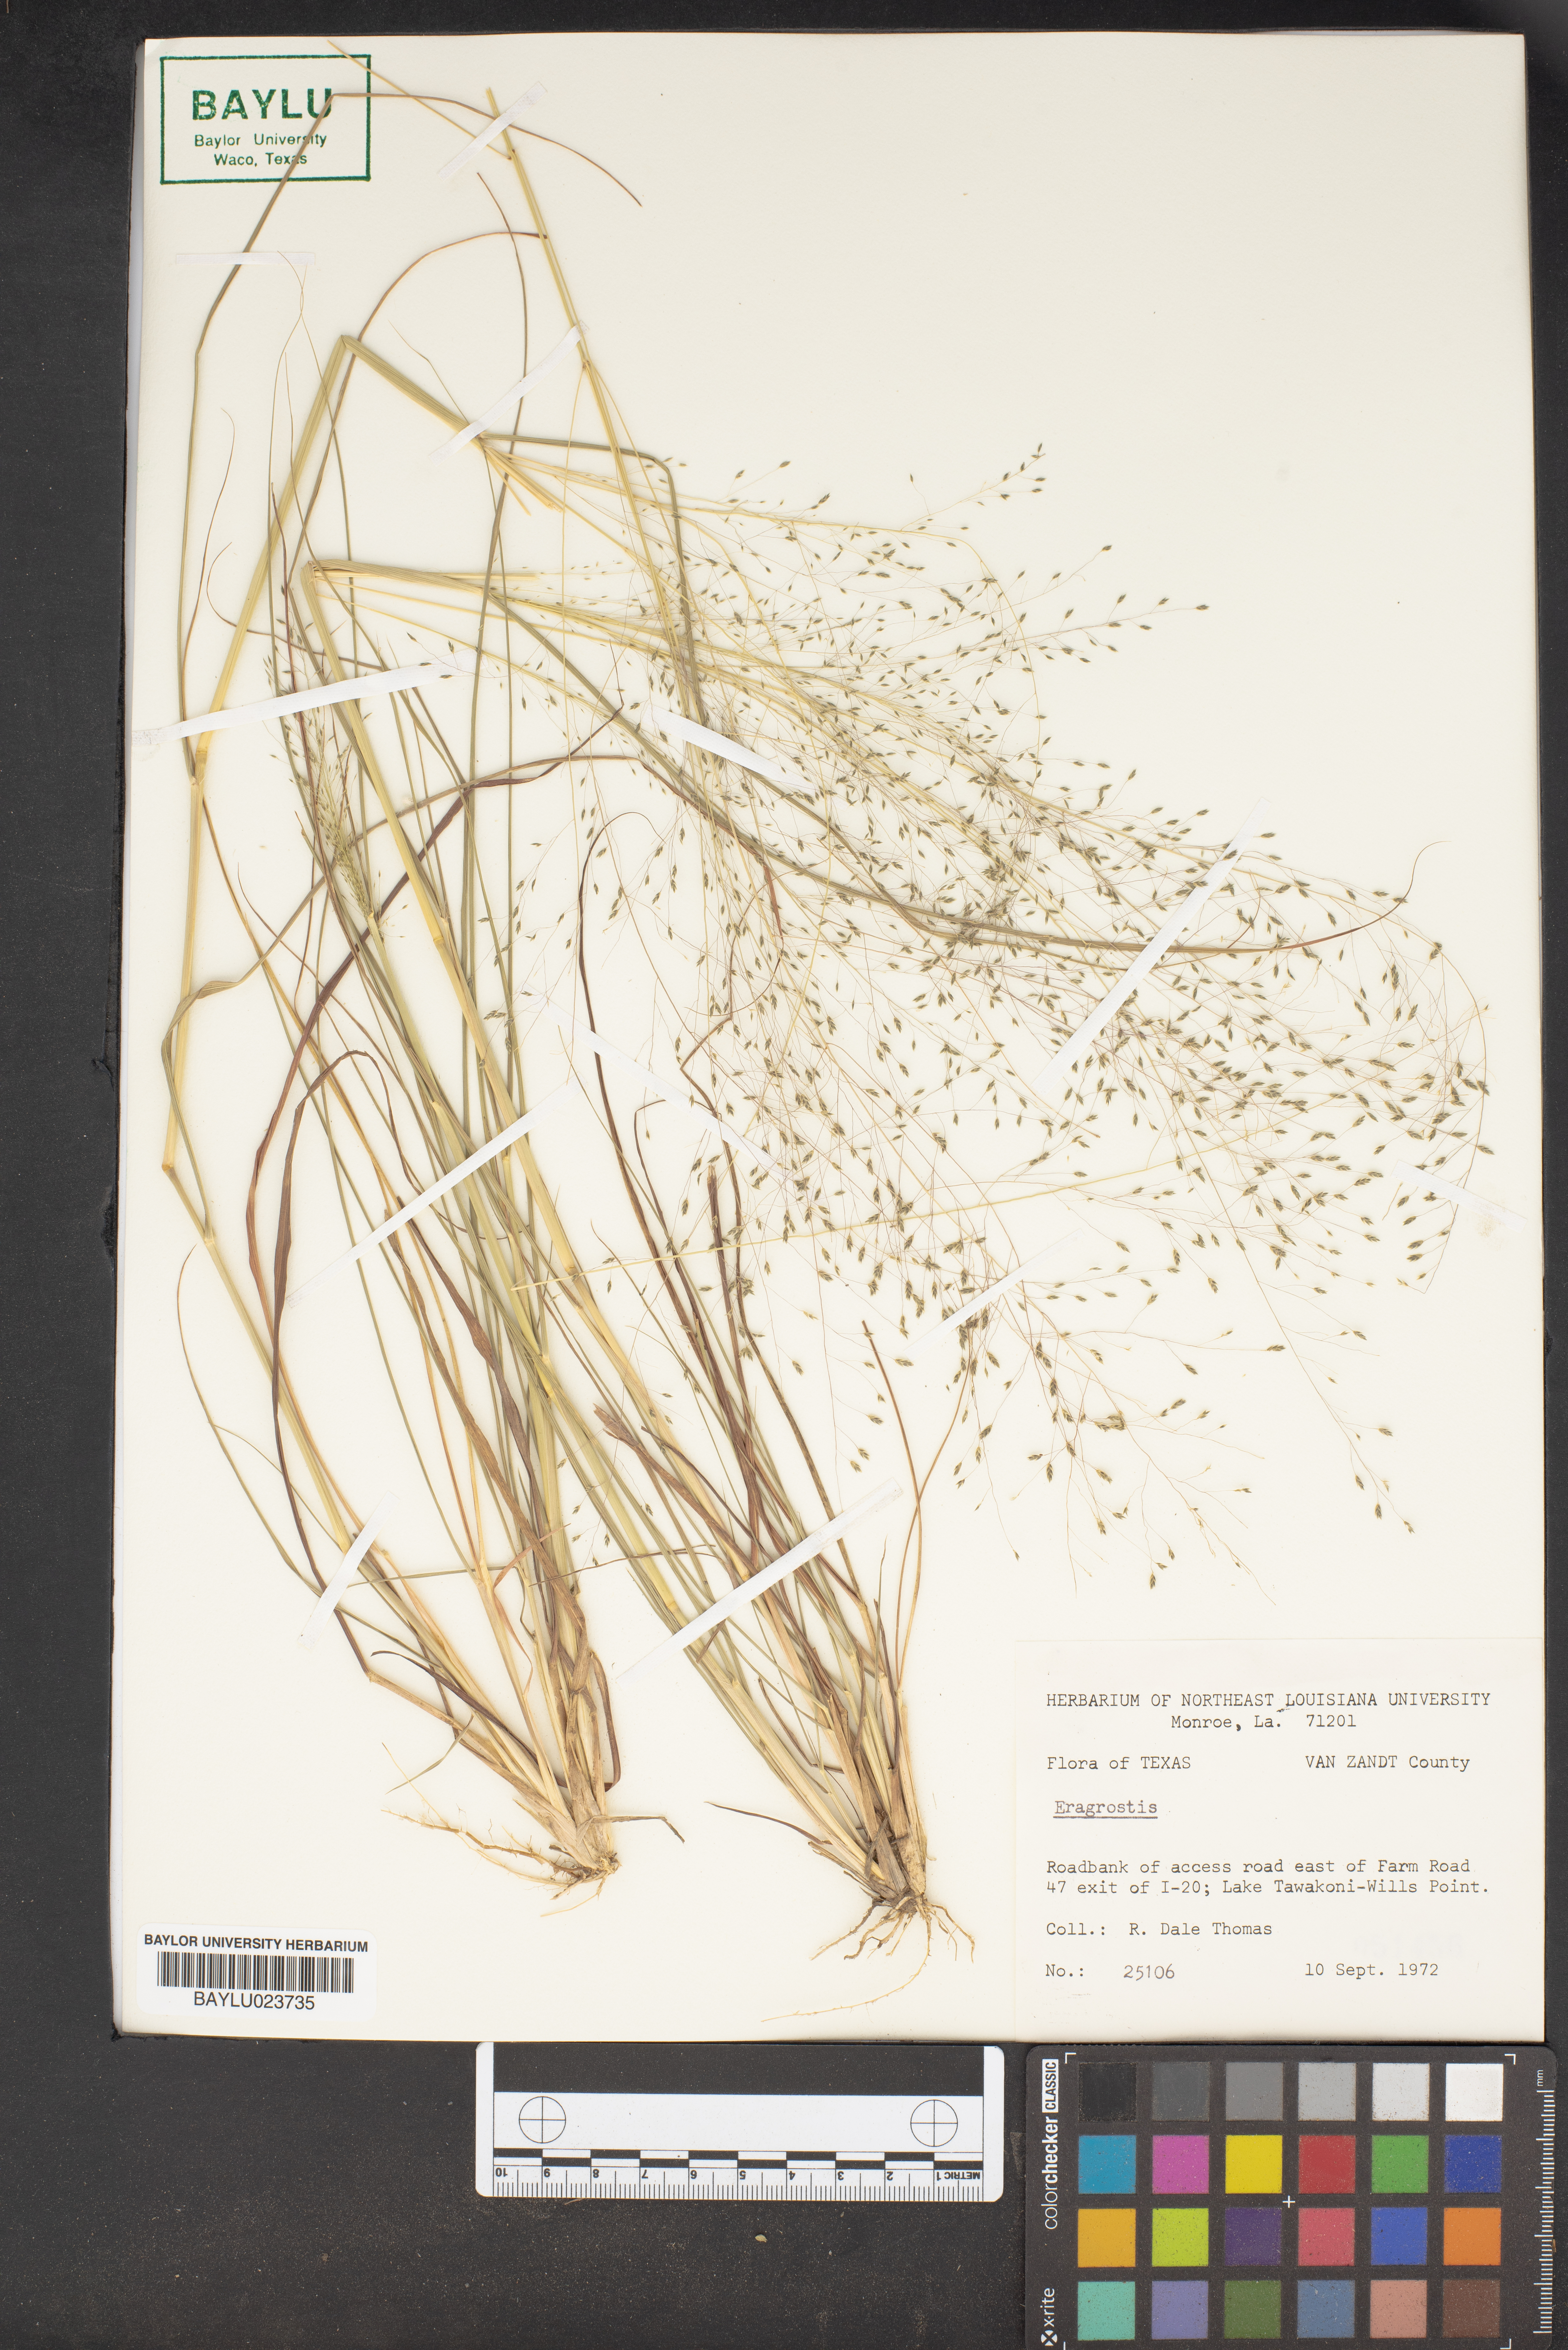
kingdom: Plantae
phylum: Tracheophyta
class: Liliopsida
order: Poales
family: Poaceae
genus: Eragrostis
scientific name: Eragrostis
